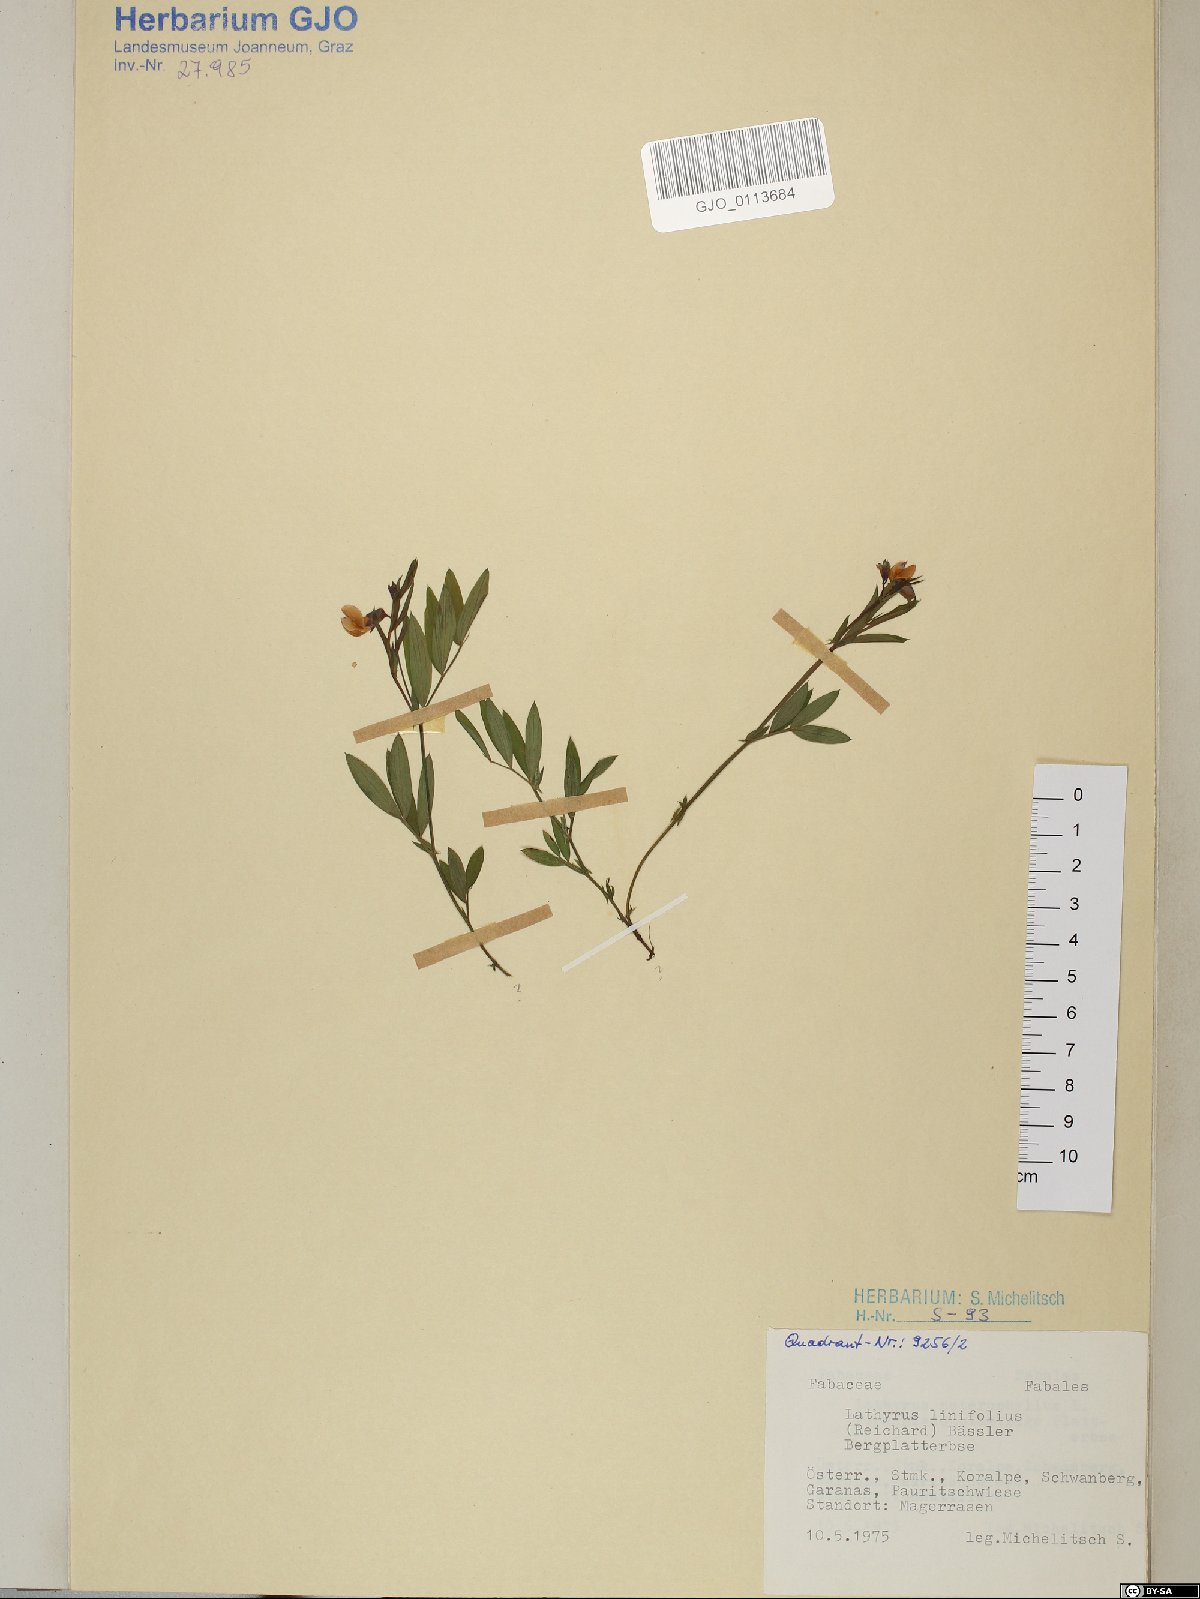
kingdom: Plantae
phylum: Tracheophyta
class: Magnoliopsida
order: Fabales
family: Fabaceae
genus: Lathyrus
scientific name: Lathyrus linifolius
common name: Bitter-vetch
